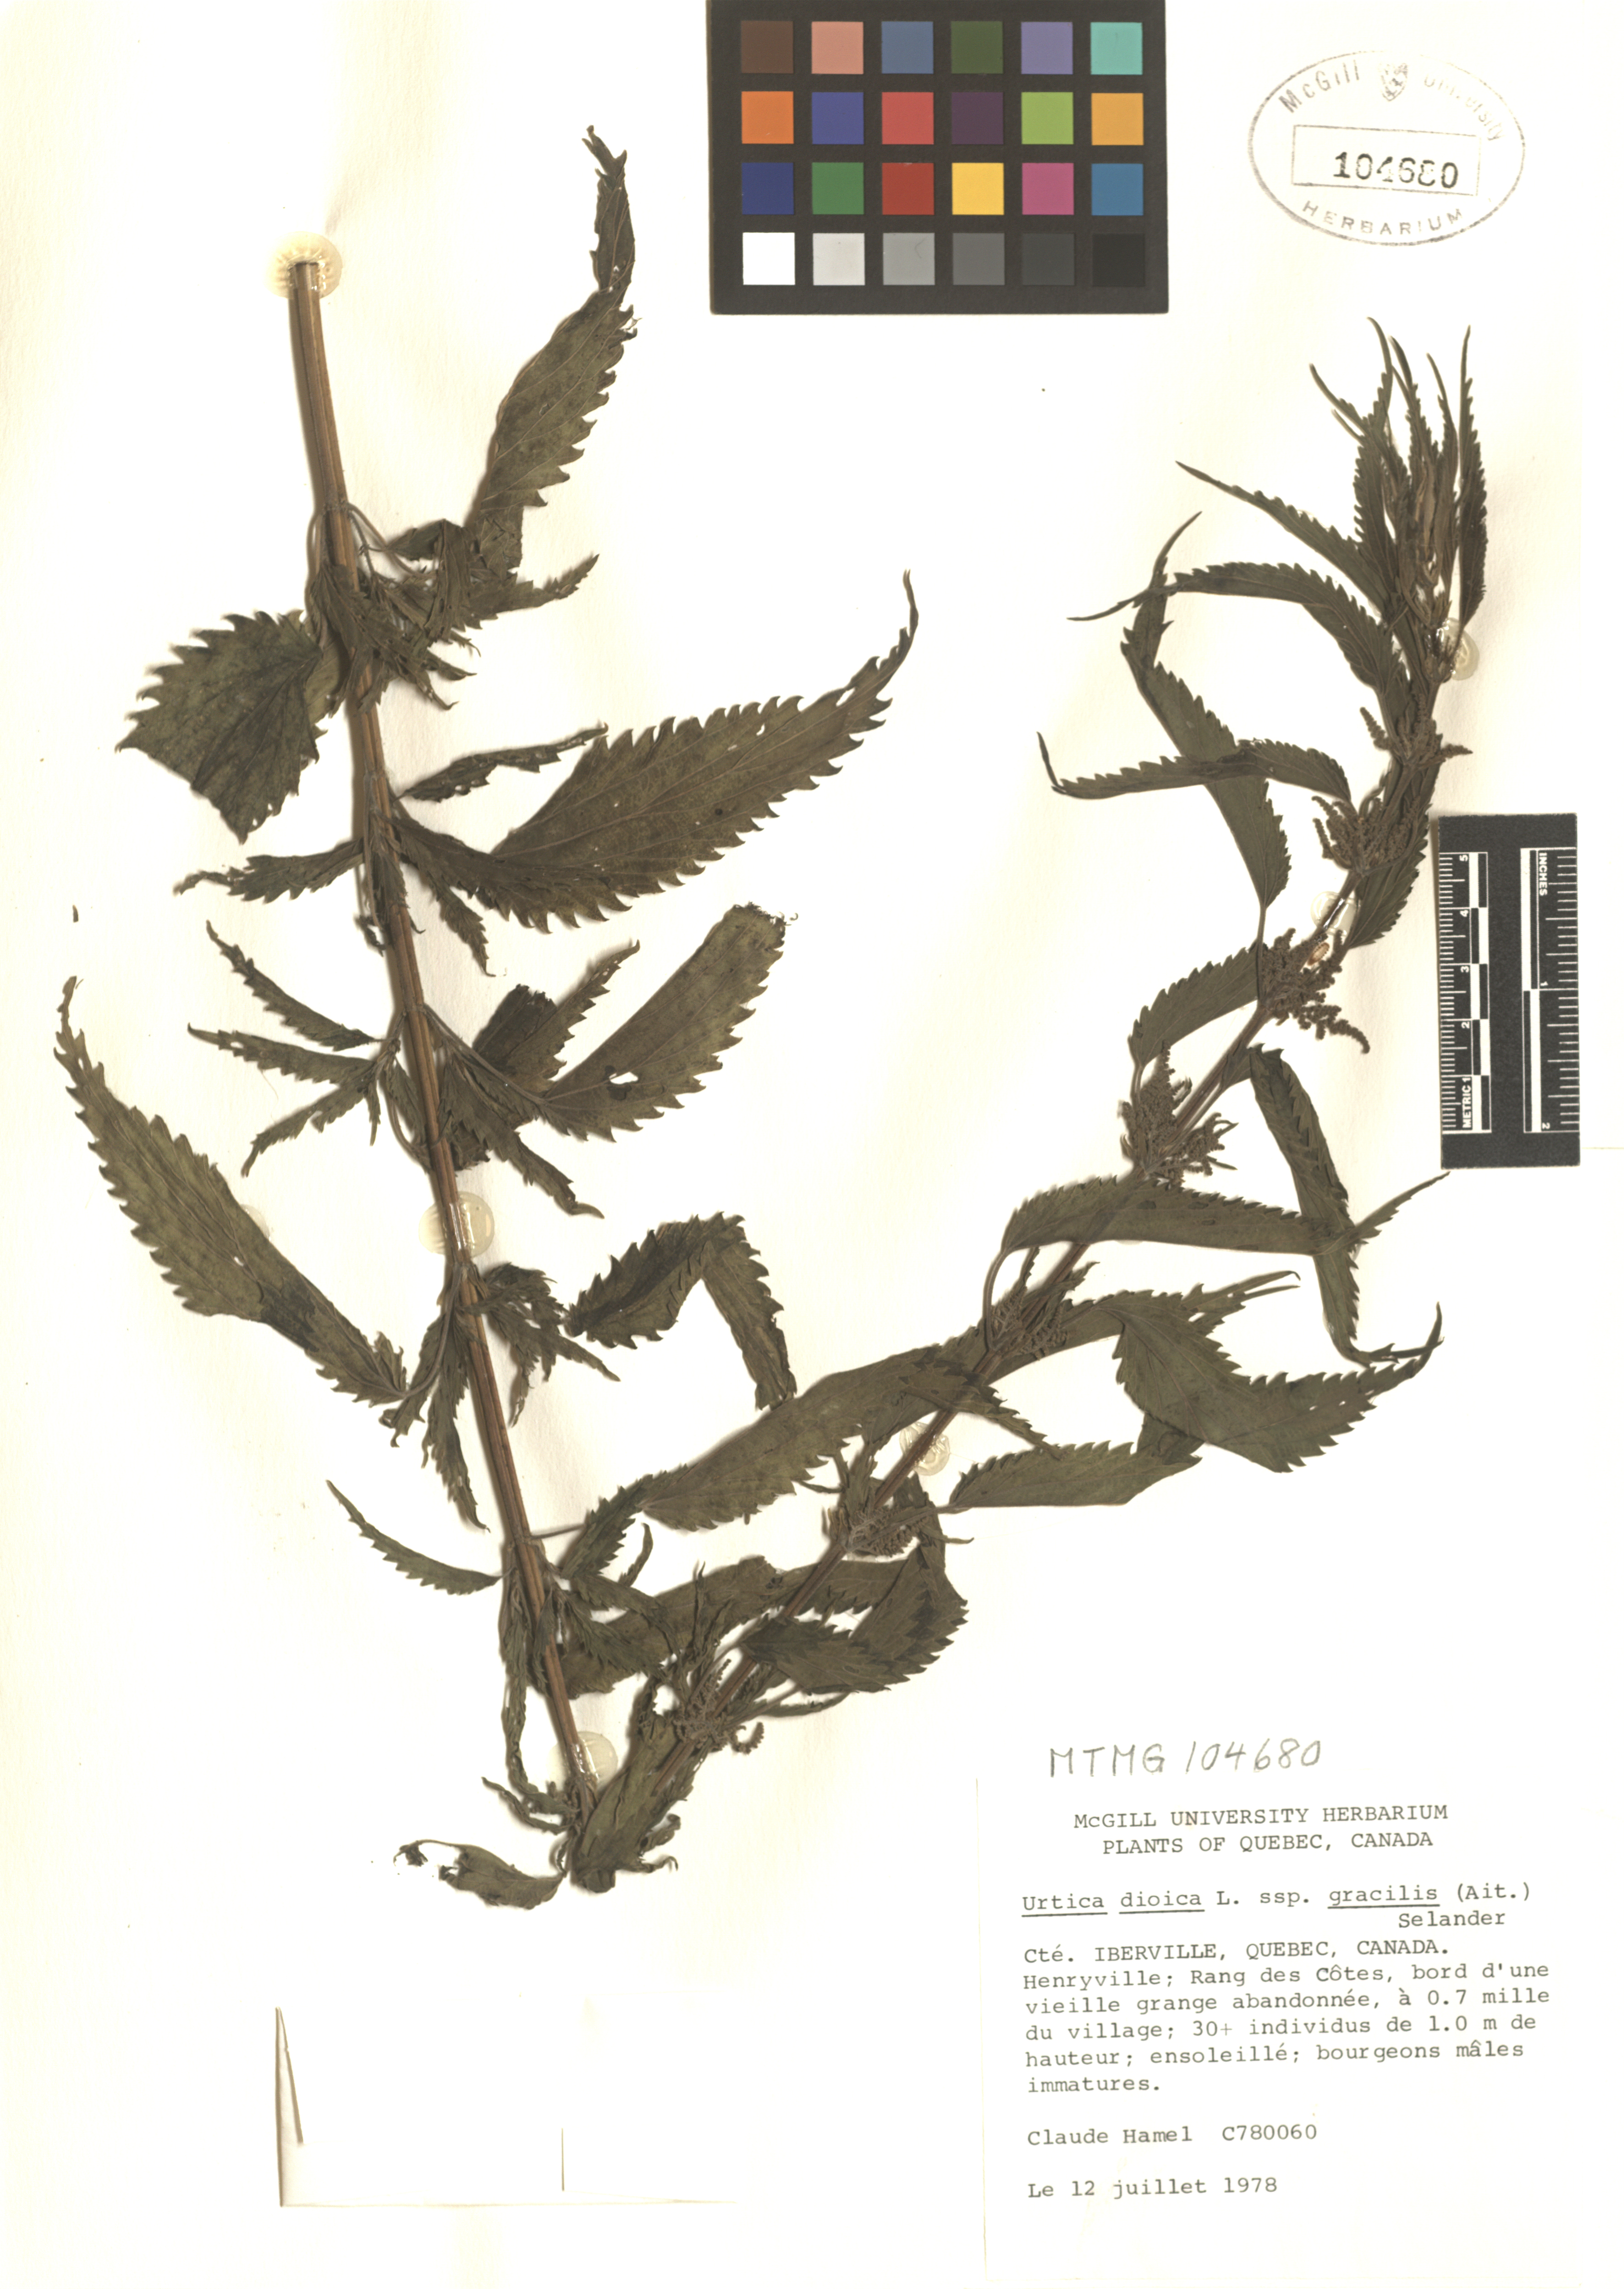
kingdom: Plantae
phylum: Tracheophyta
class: Magnoliopsida
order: Rosales
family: Urticaceae
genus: Urtica
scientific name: Urtica gracilis
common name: Slender stinging nettle
